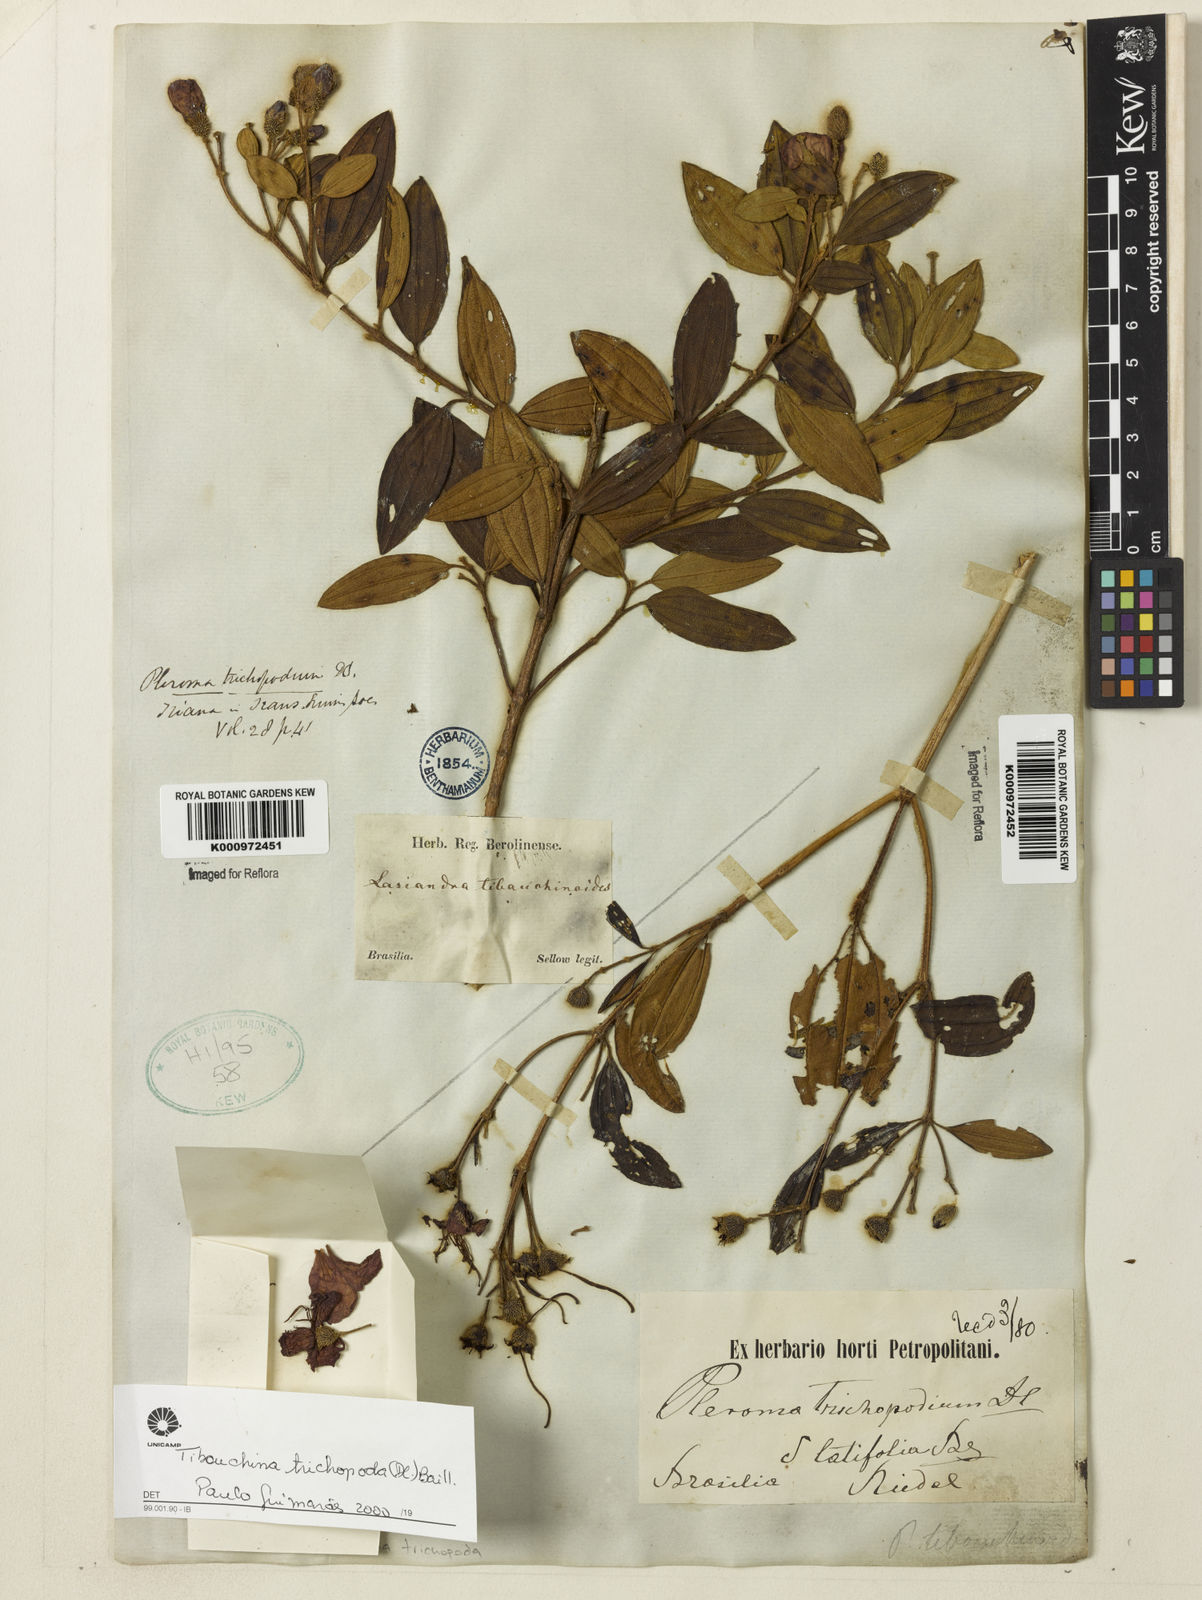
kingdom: Plantae
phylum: Tracheophyta
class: Magnoliopsida
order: Myrtales
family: Melastomataceae
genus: Pleroma
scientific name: Pleroma trichopodum
